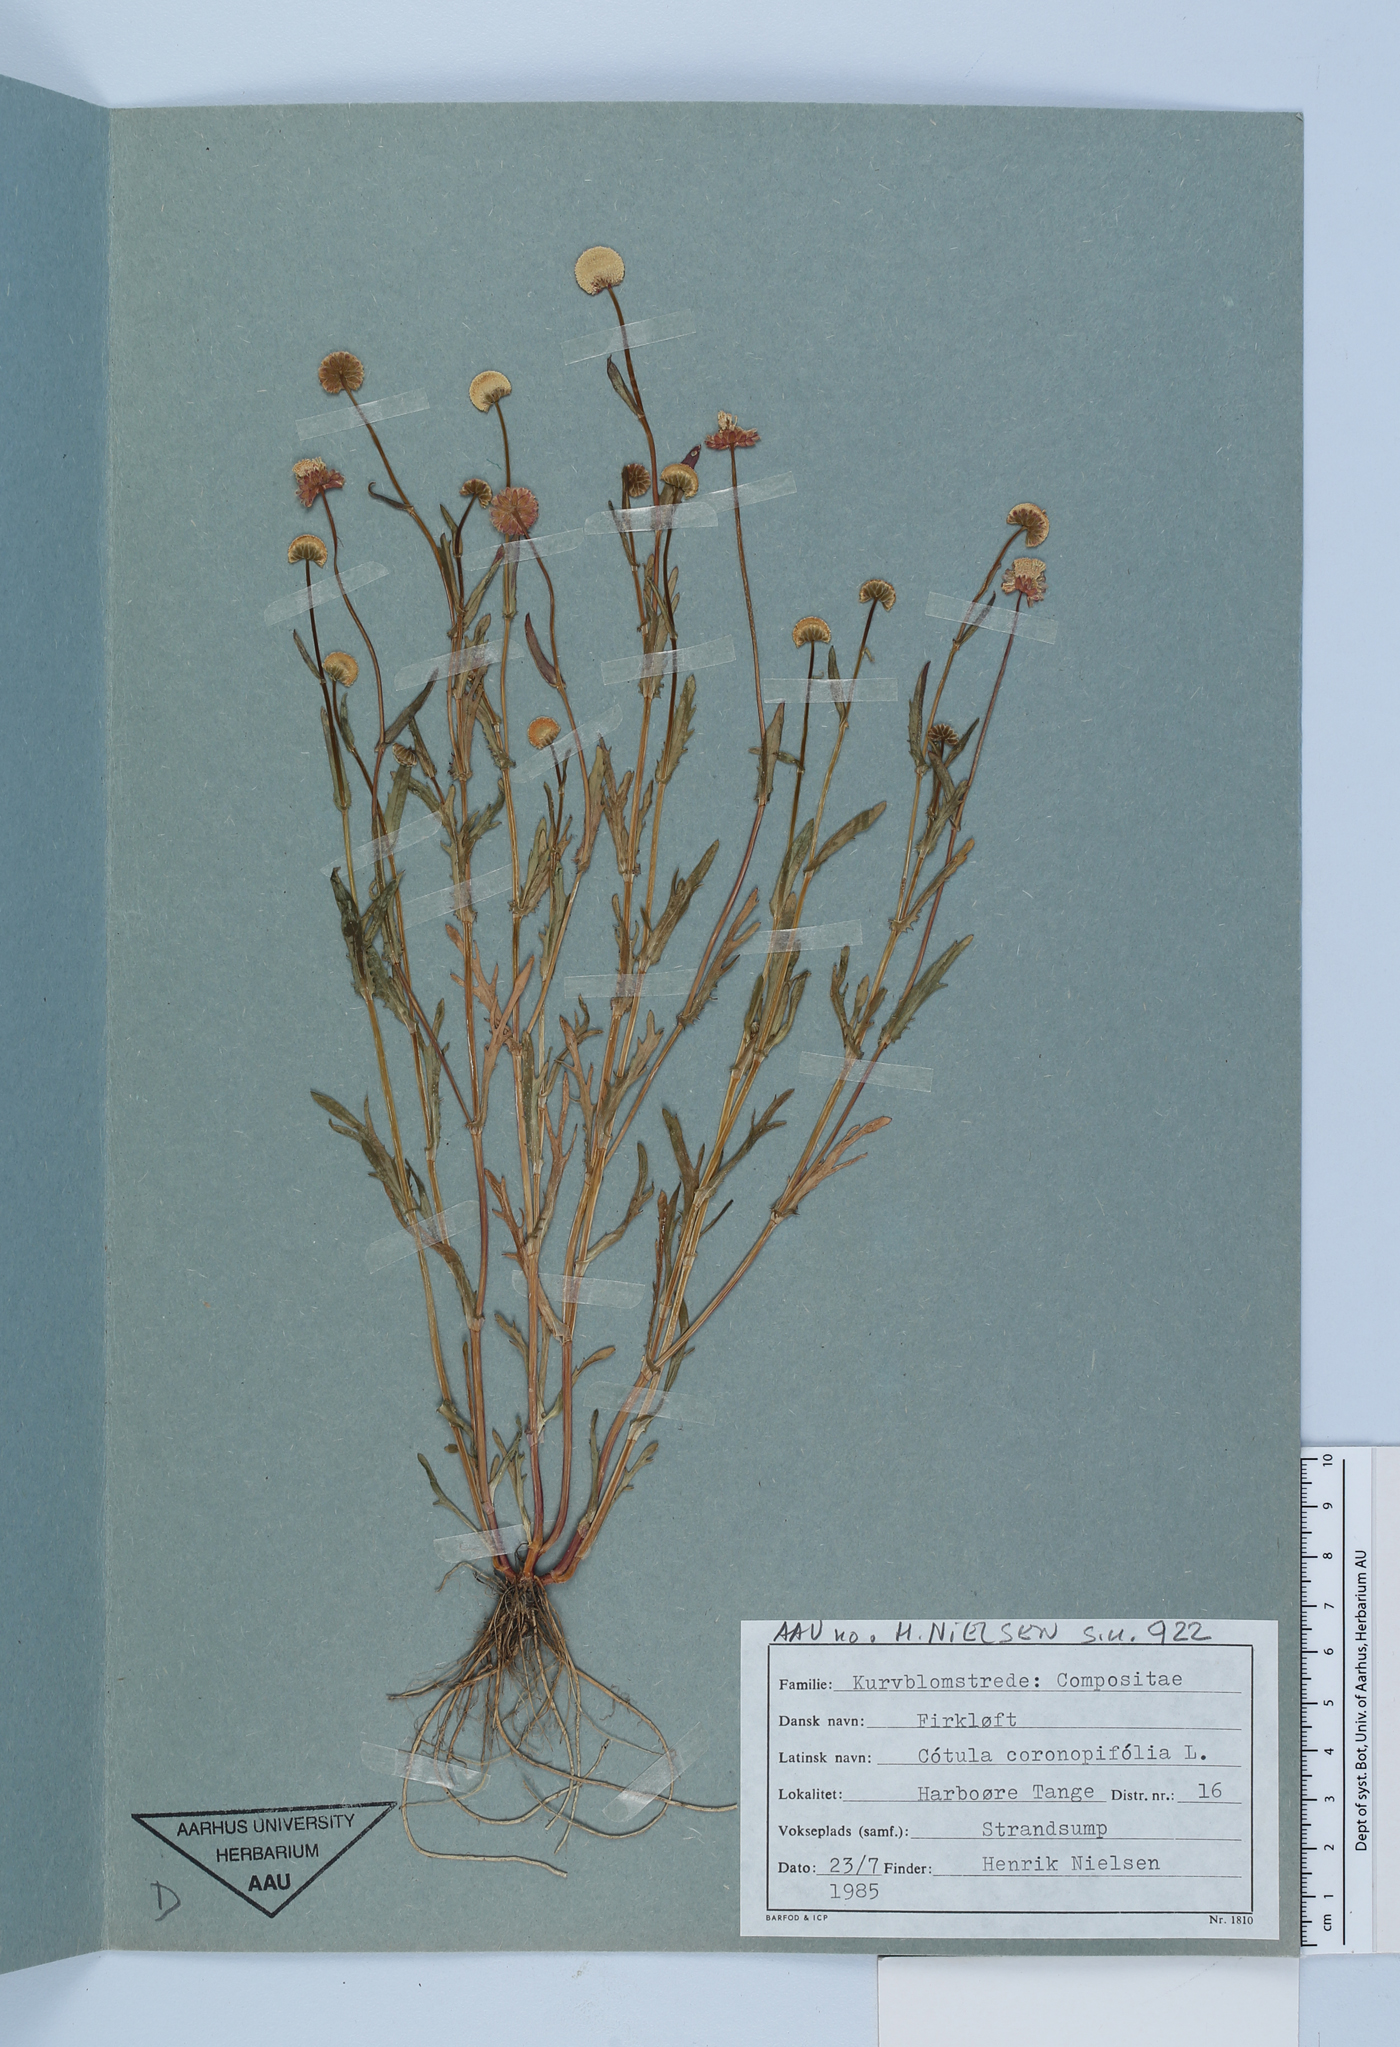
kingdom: Plantae
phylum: Tracheophyta
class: Magnoliopsida
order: Asterales
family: Asteraceae
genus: Cotula
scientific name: Cotula coronopifolia
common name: Buttonweed
